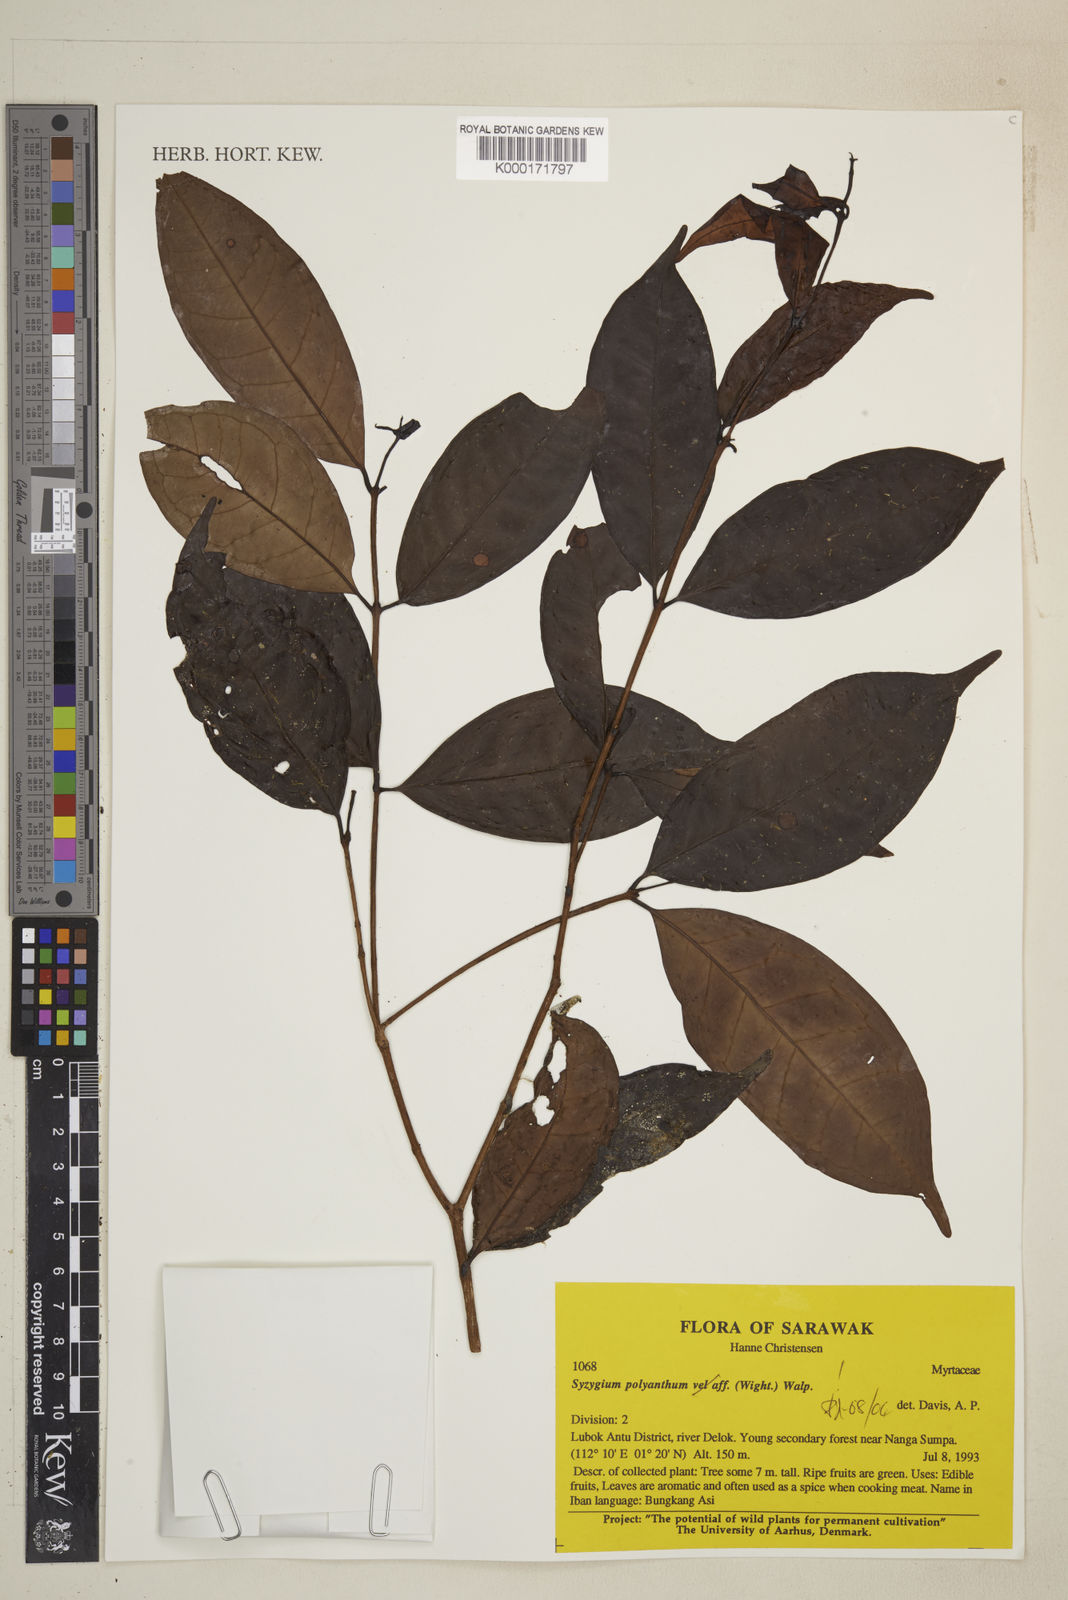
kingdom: Plantae
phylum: Tracheophyta
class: Magnoliopsida
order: Myrtales
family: Myrtaceae
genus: Syzygium
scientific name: Syzygium polyanthum
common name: Indonesian bayleaf
